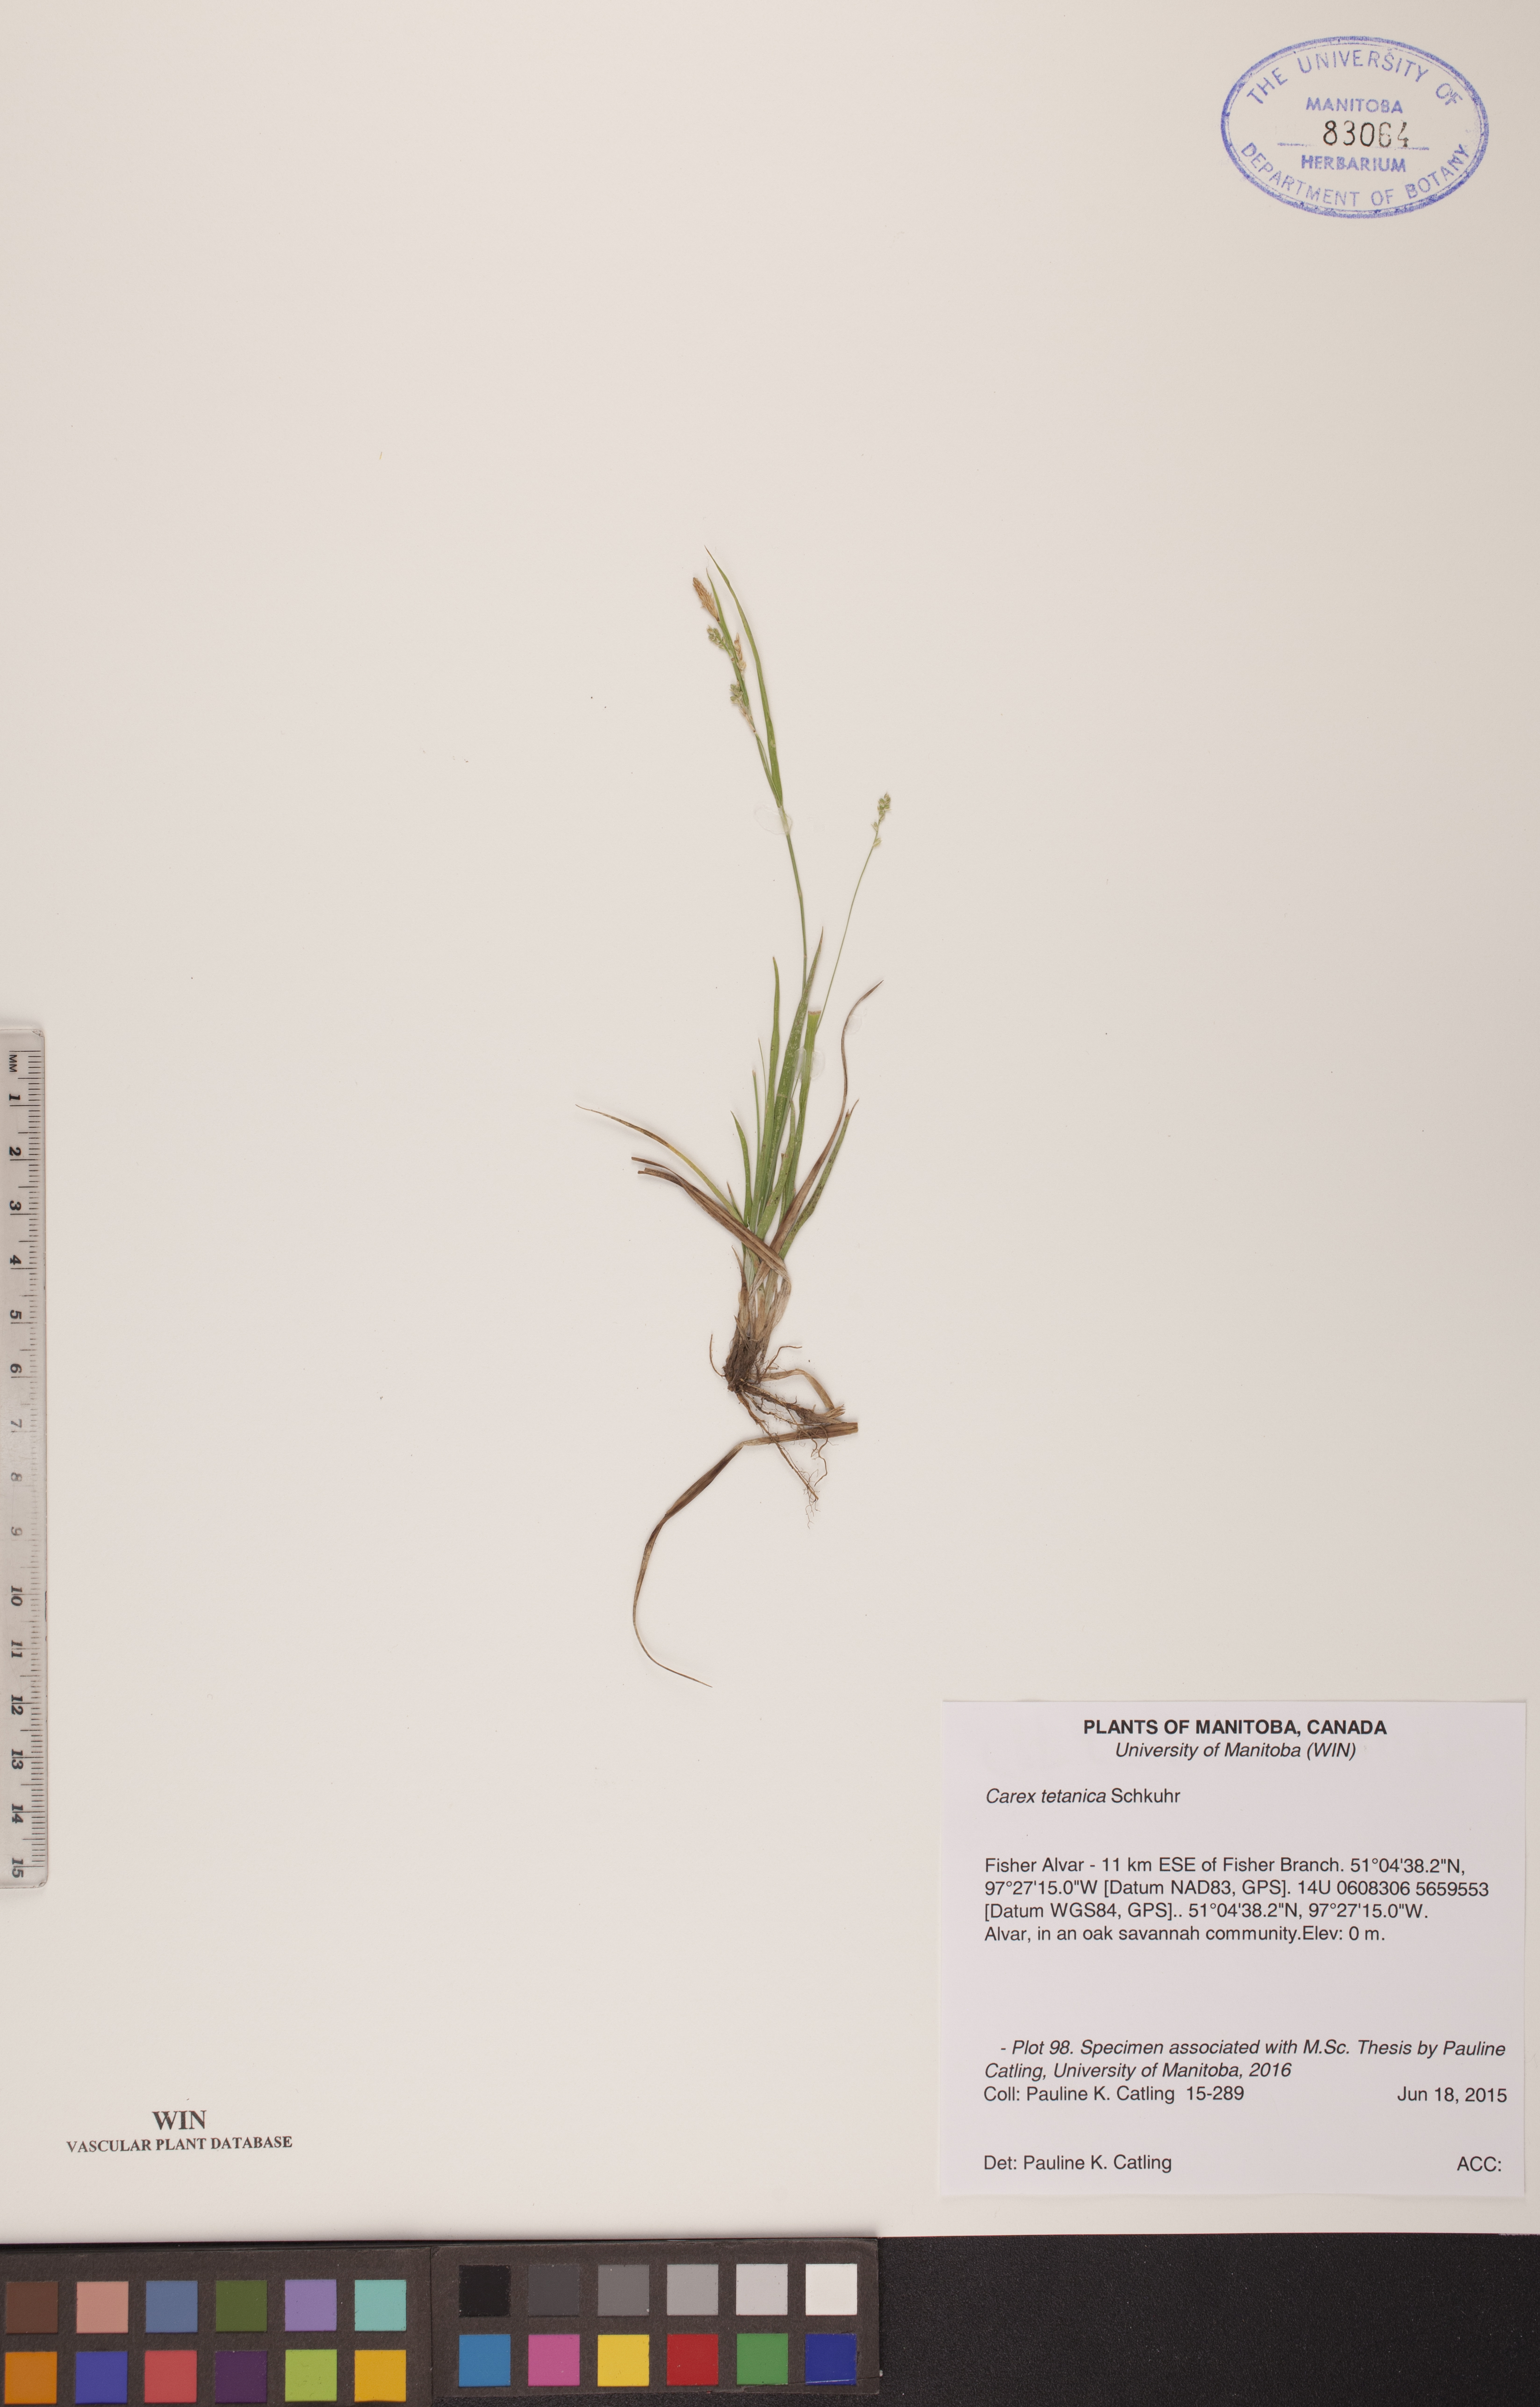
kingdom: Plantae
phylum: Tracheophyta
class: Liliopsida
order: Poales
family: Cyperaceae
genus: Carex
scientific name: Carex tetanica
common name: Rigid sedge
